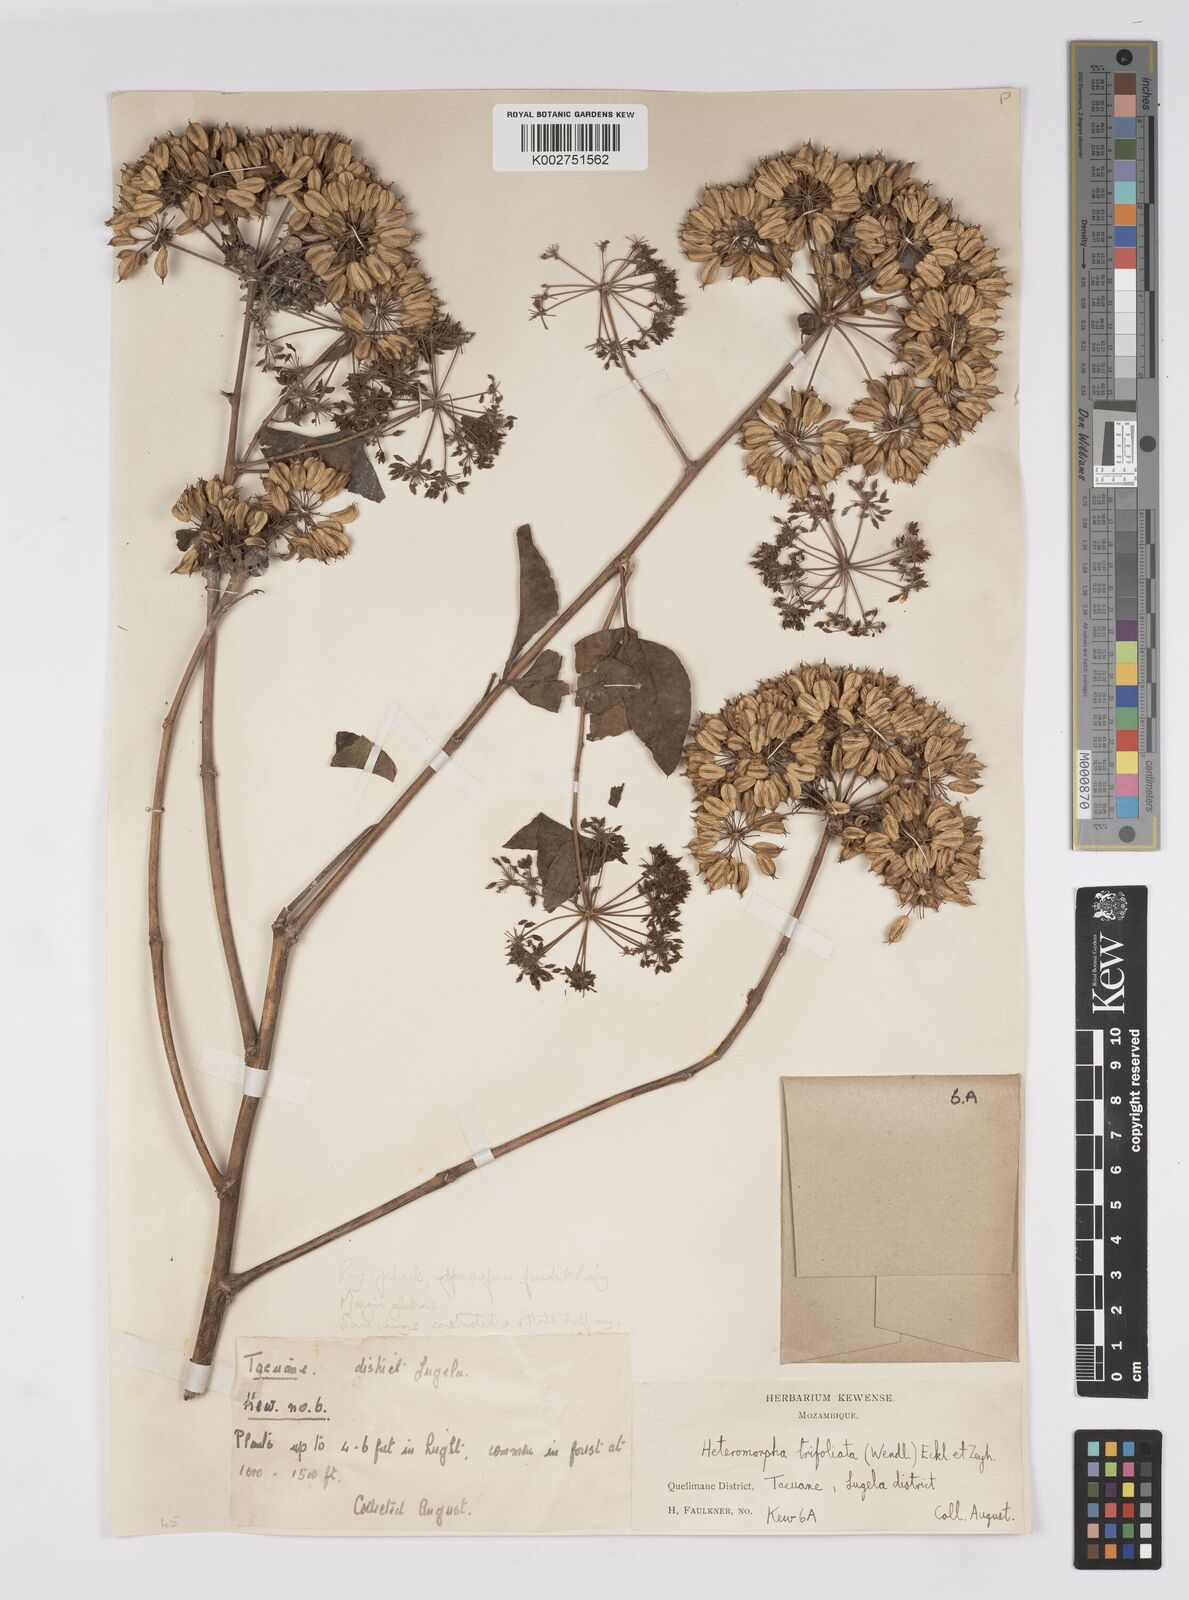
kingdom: Plantae
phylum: Tracheophyta
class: Magnoliopsida
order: Apiales
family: Apiaceae
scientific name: Apiaceae
